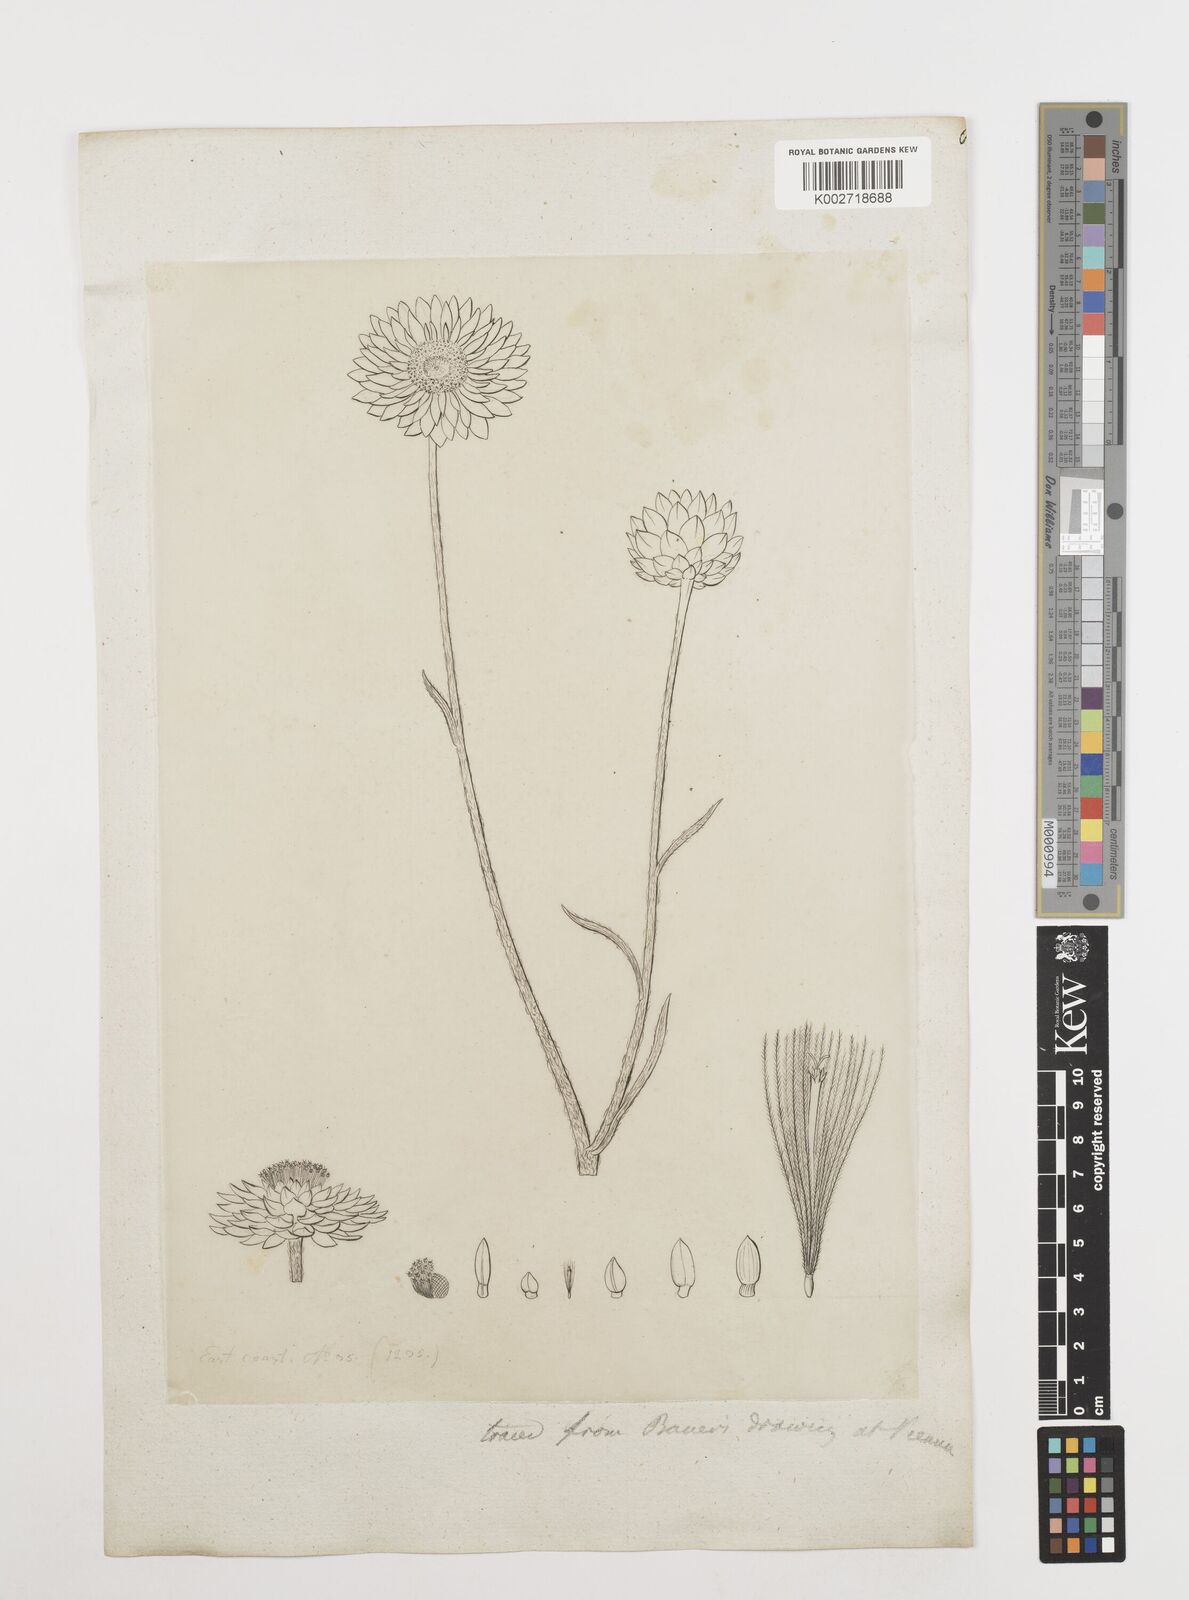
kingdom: Plantae
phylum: Tracheophyta
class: Magnoliopsida
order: Asterales
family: Asteraceae
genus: Coronidium
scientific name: Coronidium scorpioides
